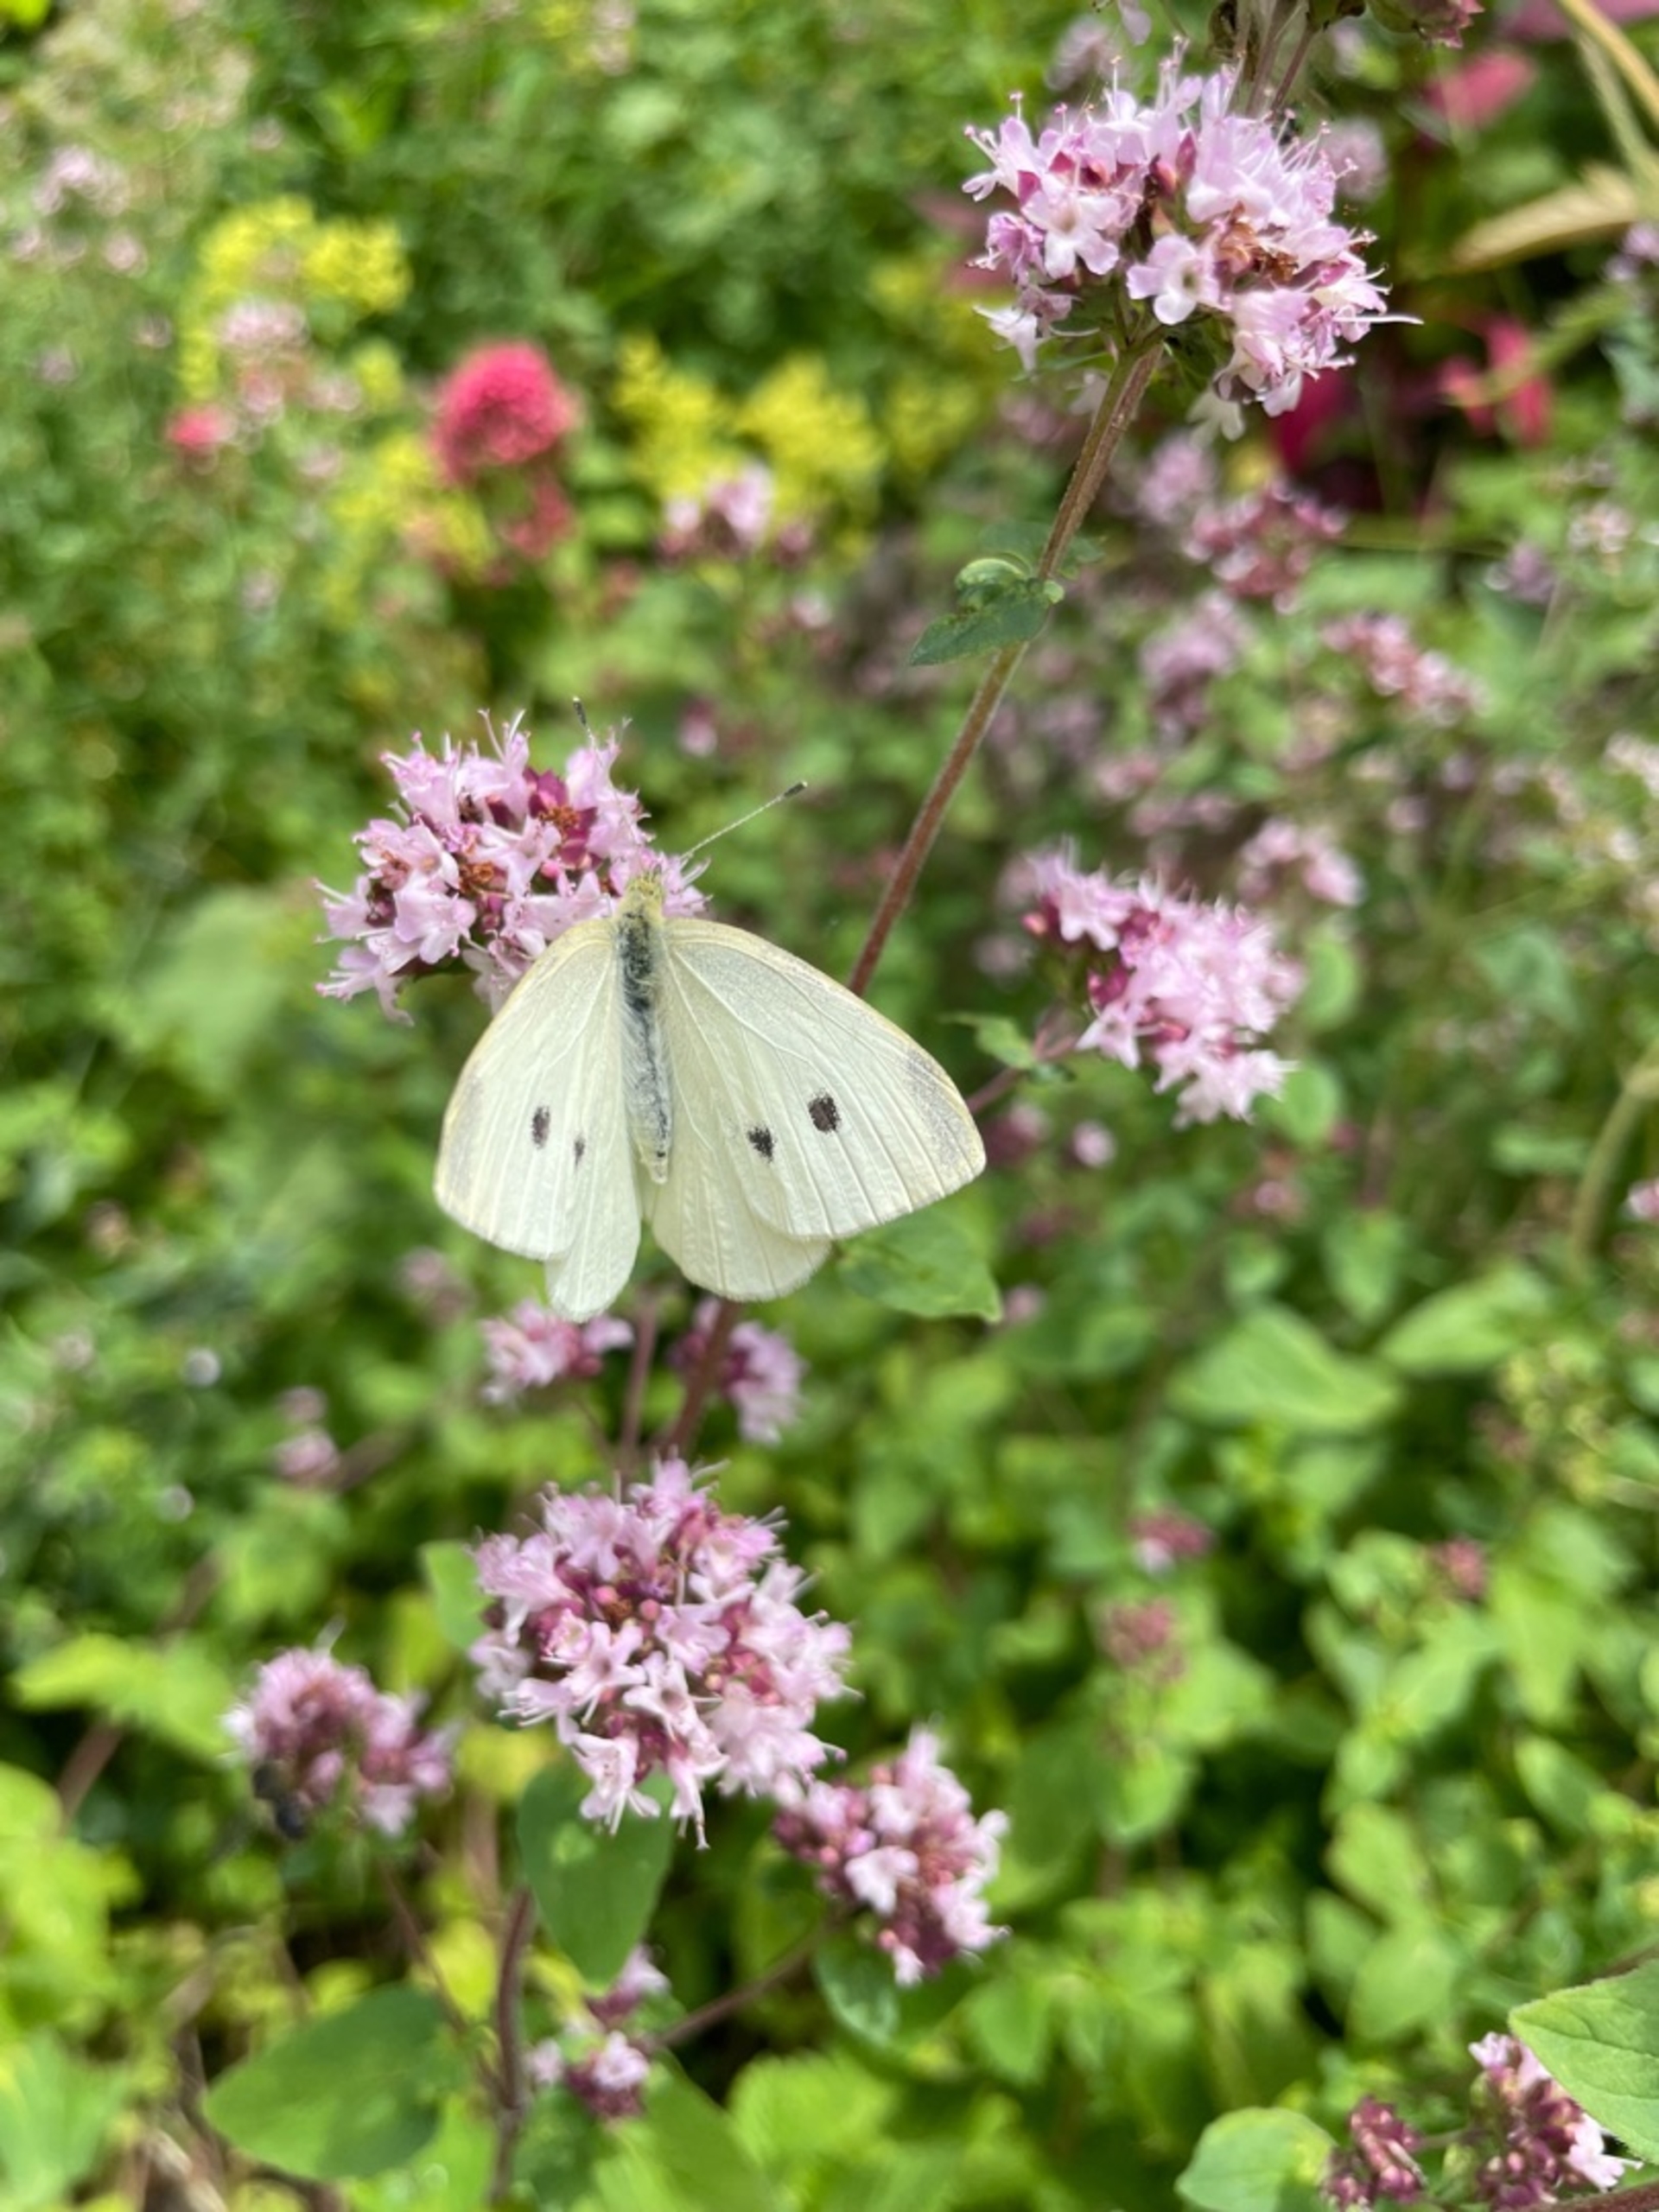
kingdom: Animalia
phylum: Arthropoda
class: Insecta
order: Lepidoptera
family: Pieridae
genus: Pieris
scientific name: Pieris rapae
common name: Lille kålsommerfugl
